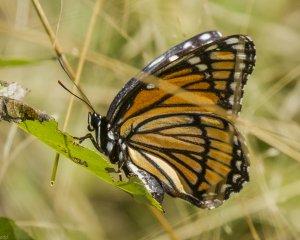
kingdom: Animalia
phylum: Arthropoda
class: Insecta
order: Lepidoptera
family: Nymphalidae
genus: Limenitis
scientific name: Limenitis archippus
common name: Viceroy
